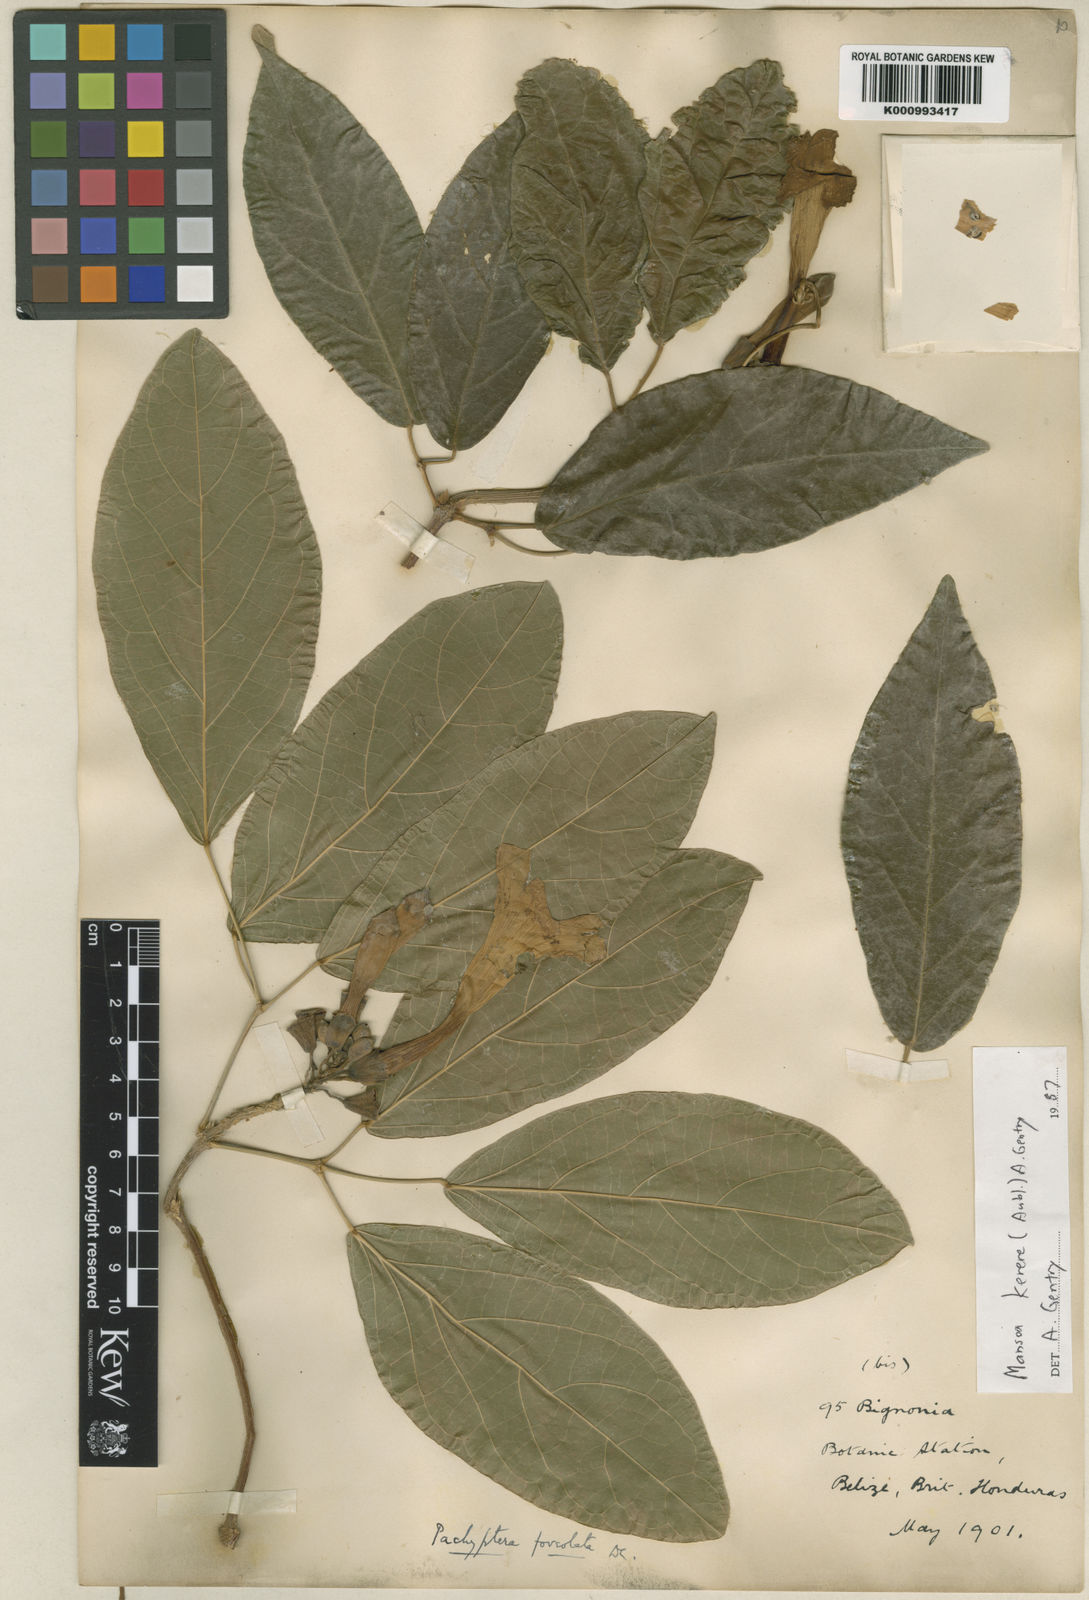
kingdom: Plantae
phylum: Tracheophyta
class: Magnoliopsida
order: Lamiales
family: Bignoniaceae
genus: Pachyptera
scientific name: Pachyptera kerere
